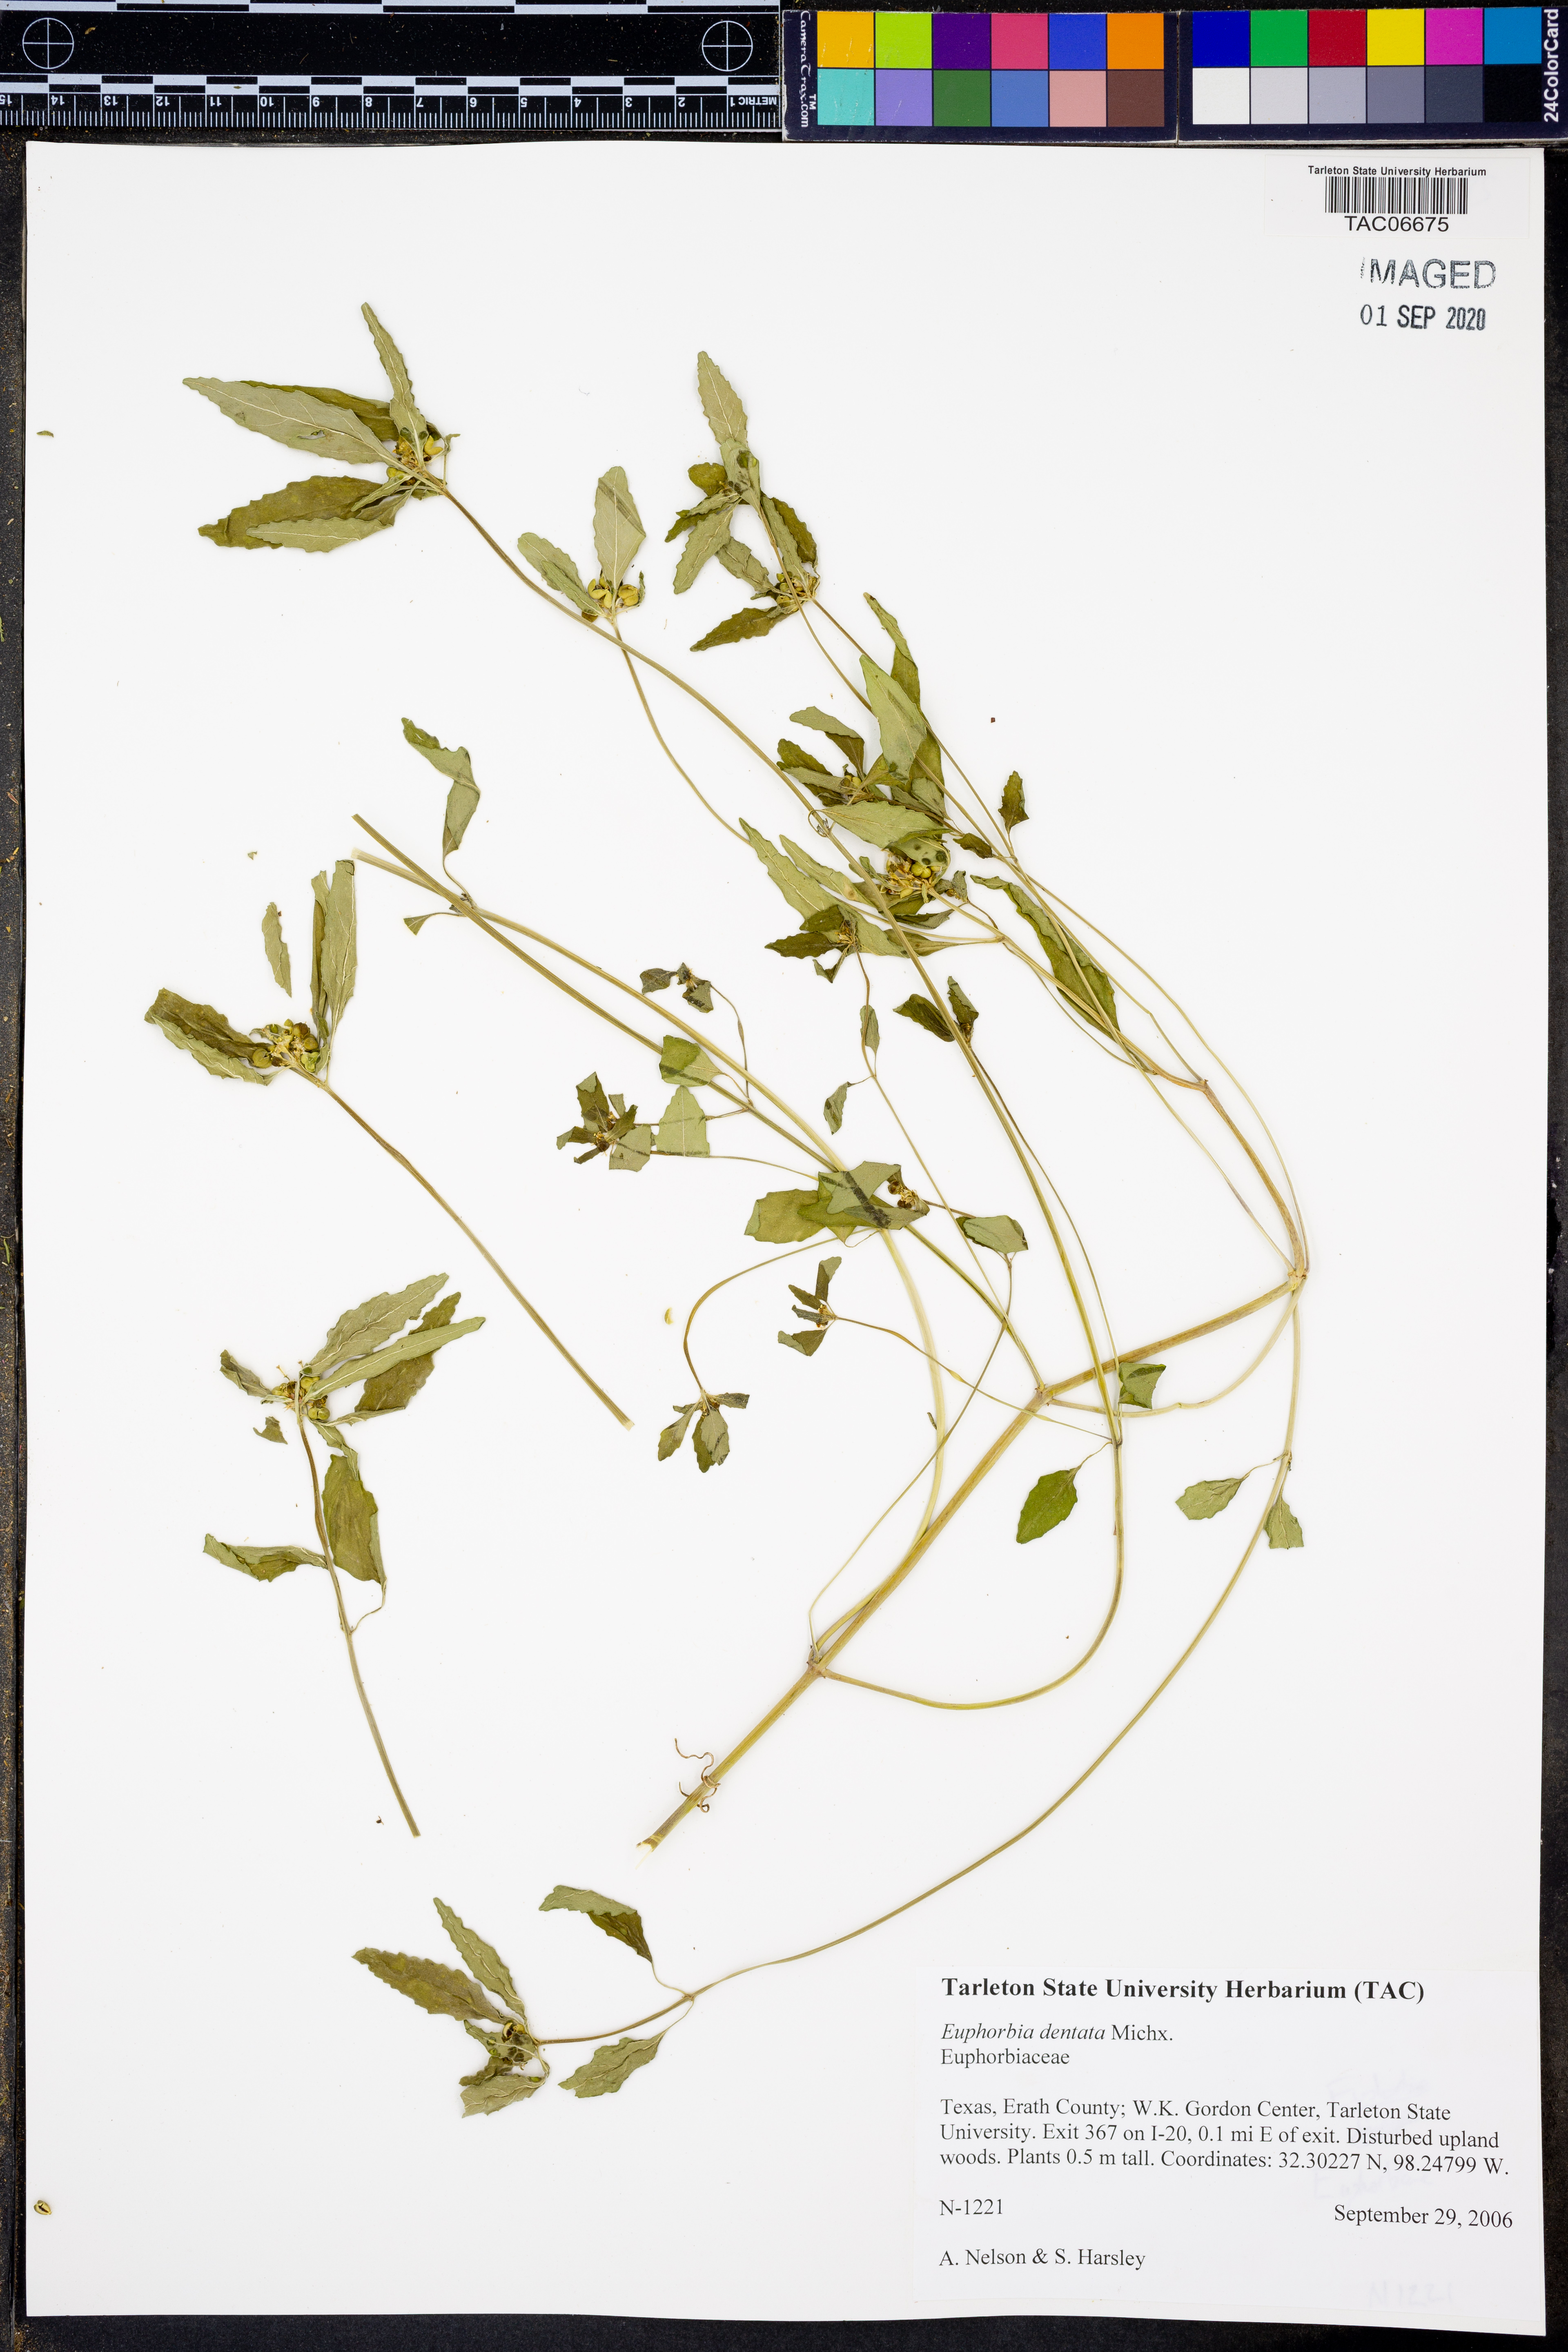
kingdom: Plantae
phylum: Tracheophyta
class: Magnoliopsida
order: Malpighiales
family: Euphorbiaceae
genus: Euphorbia
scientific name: Euphorbia dentata
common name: Dentate spurge
